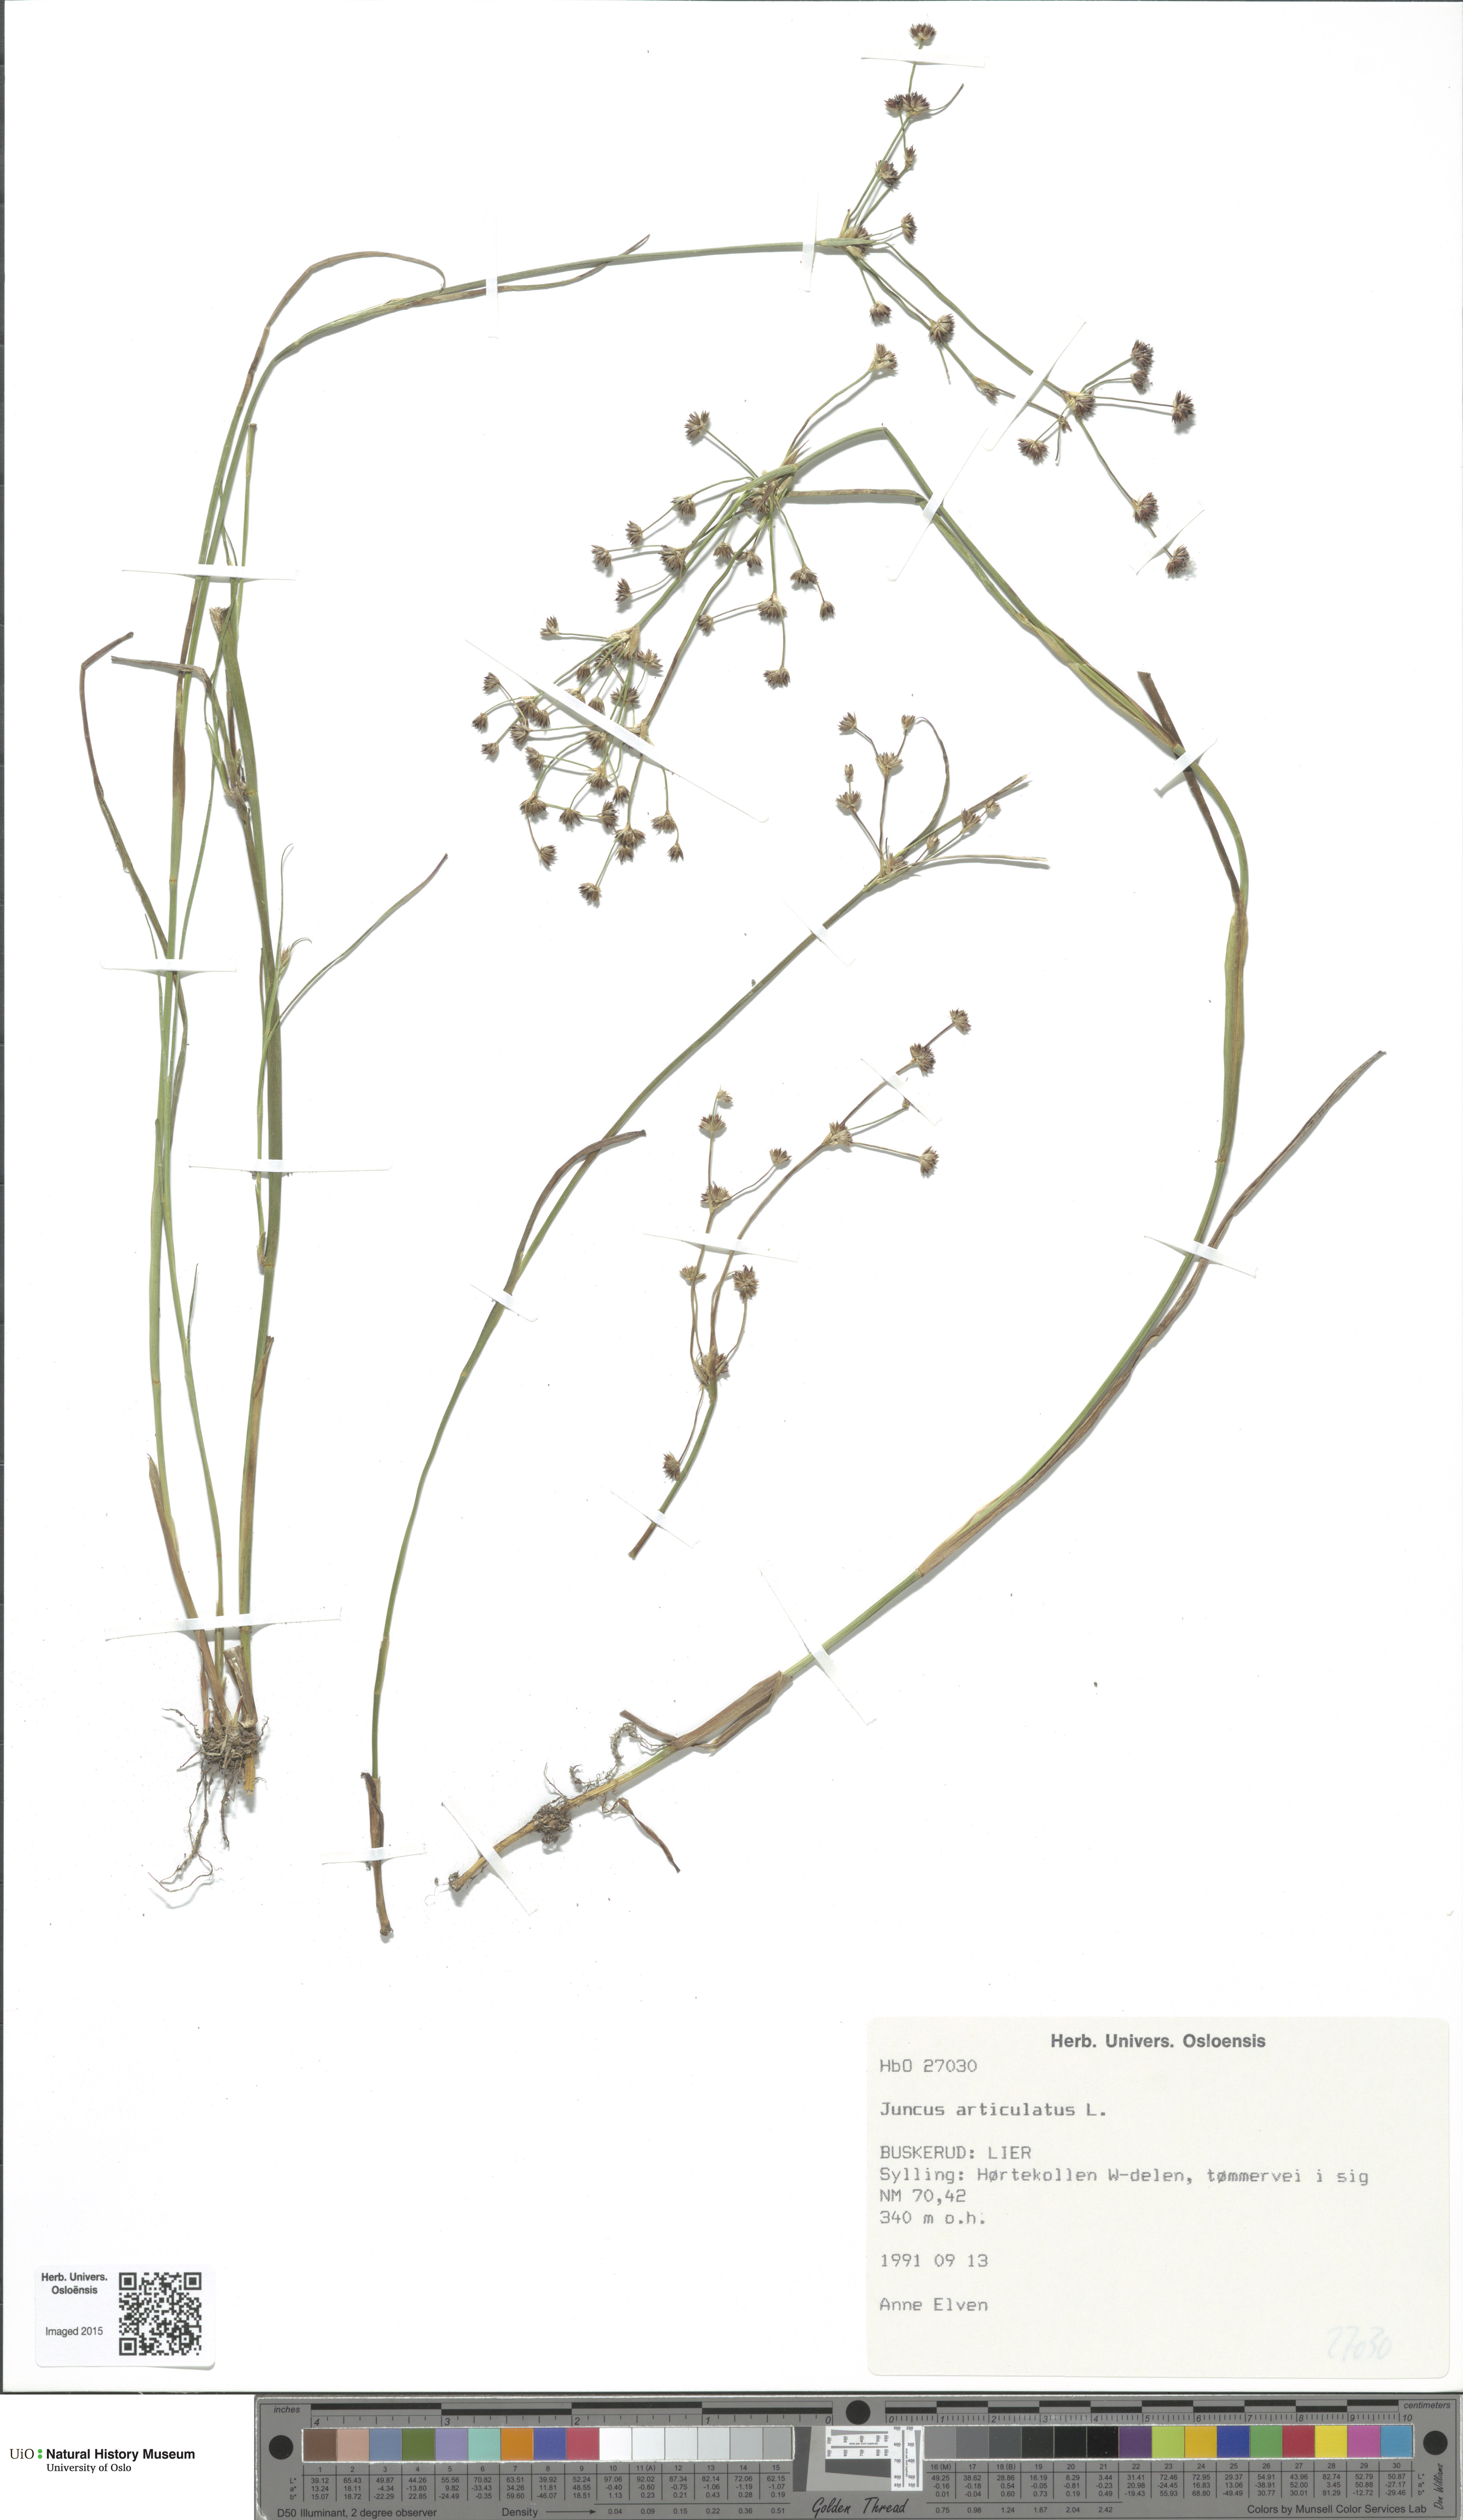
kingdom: Plantae
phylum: Tracheophyta
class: Liliopsida
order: Poales
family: Juncaceae
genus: Juncus
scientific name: Juncus articulatus
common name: Jointed rush
